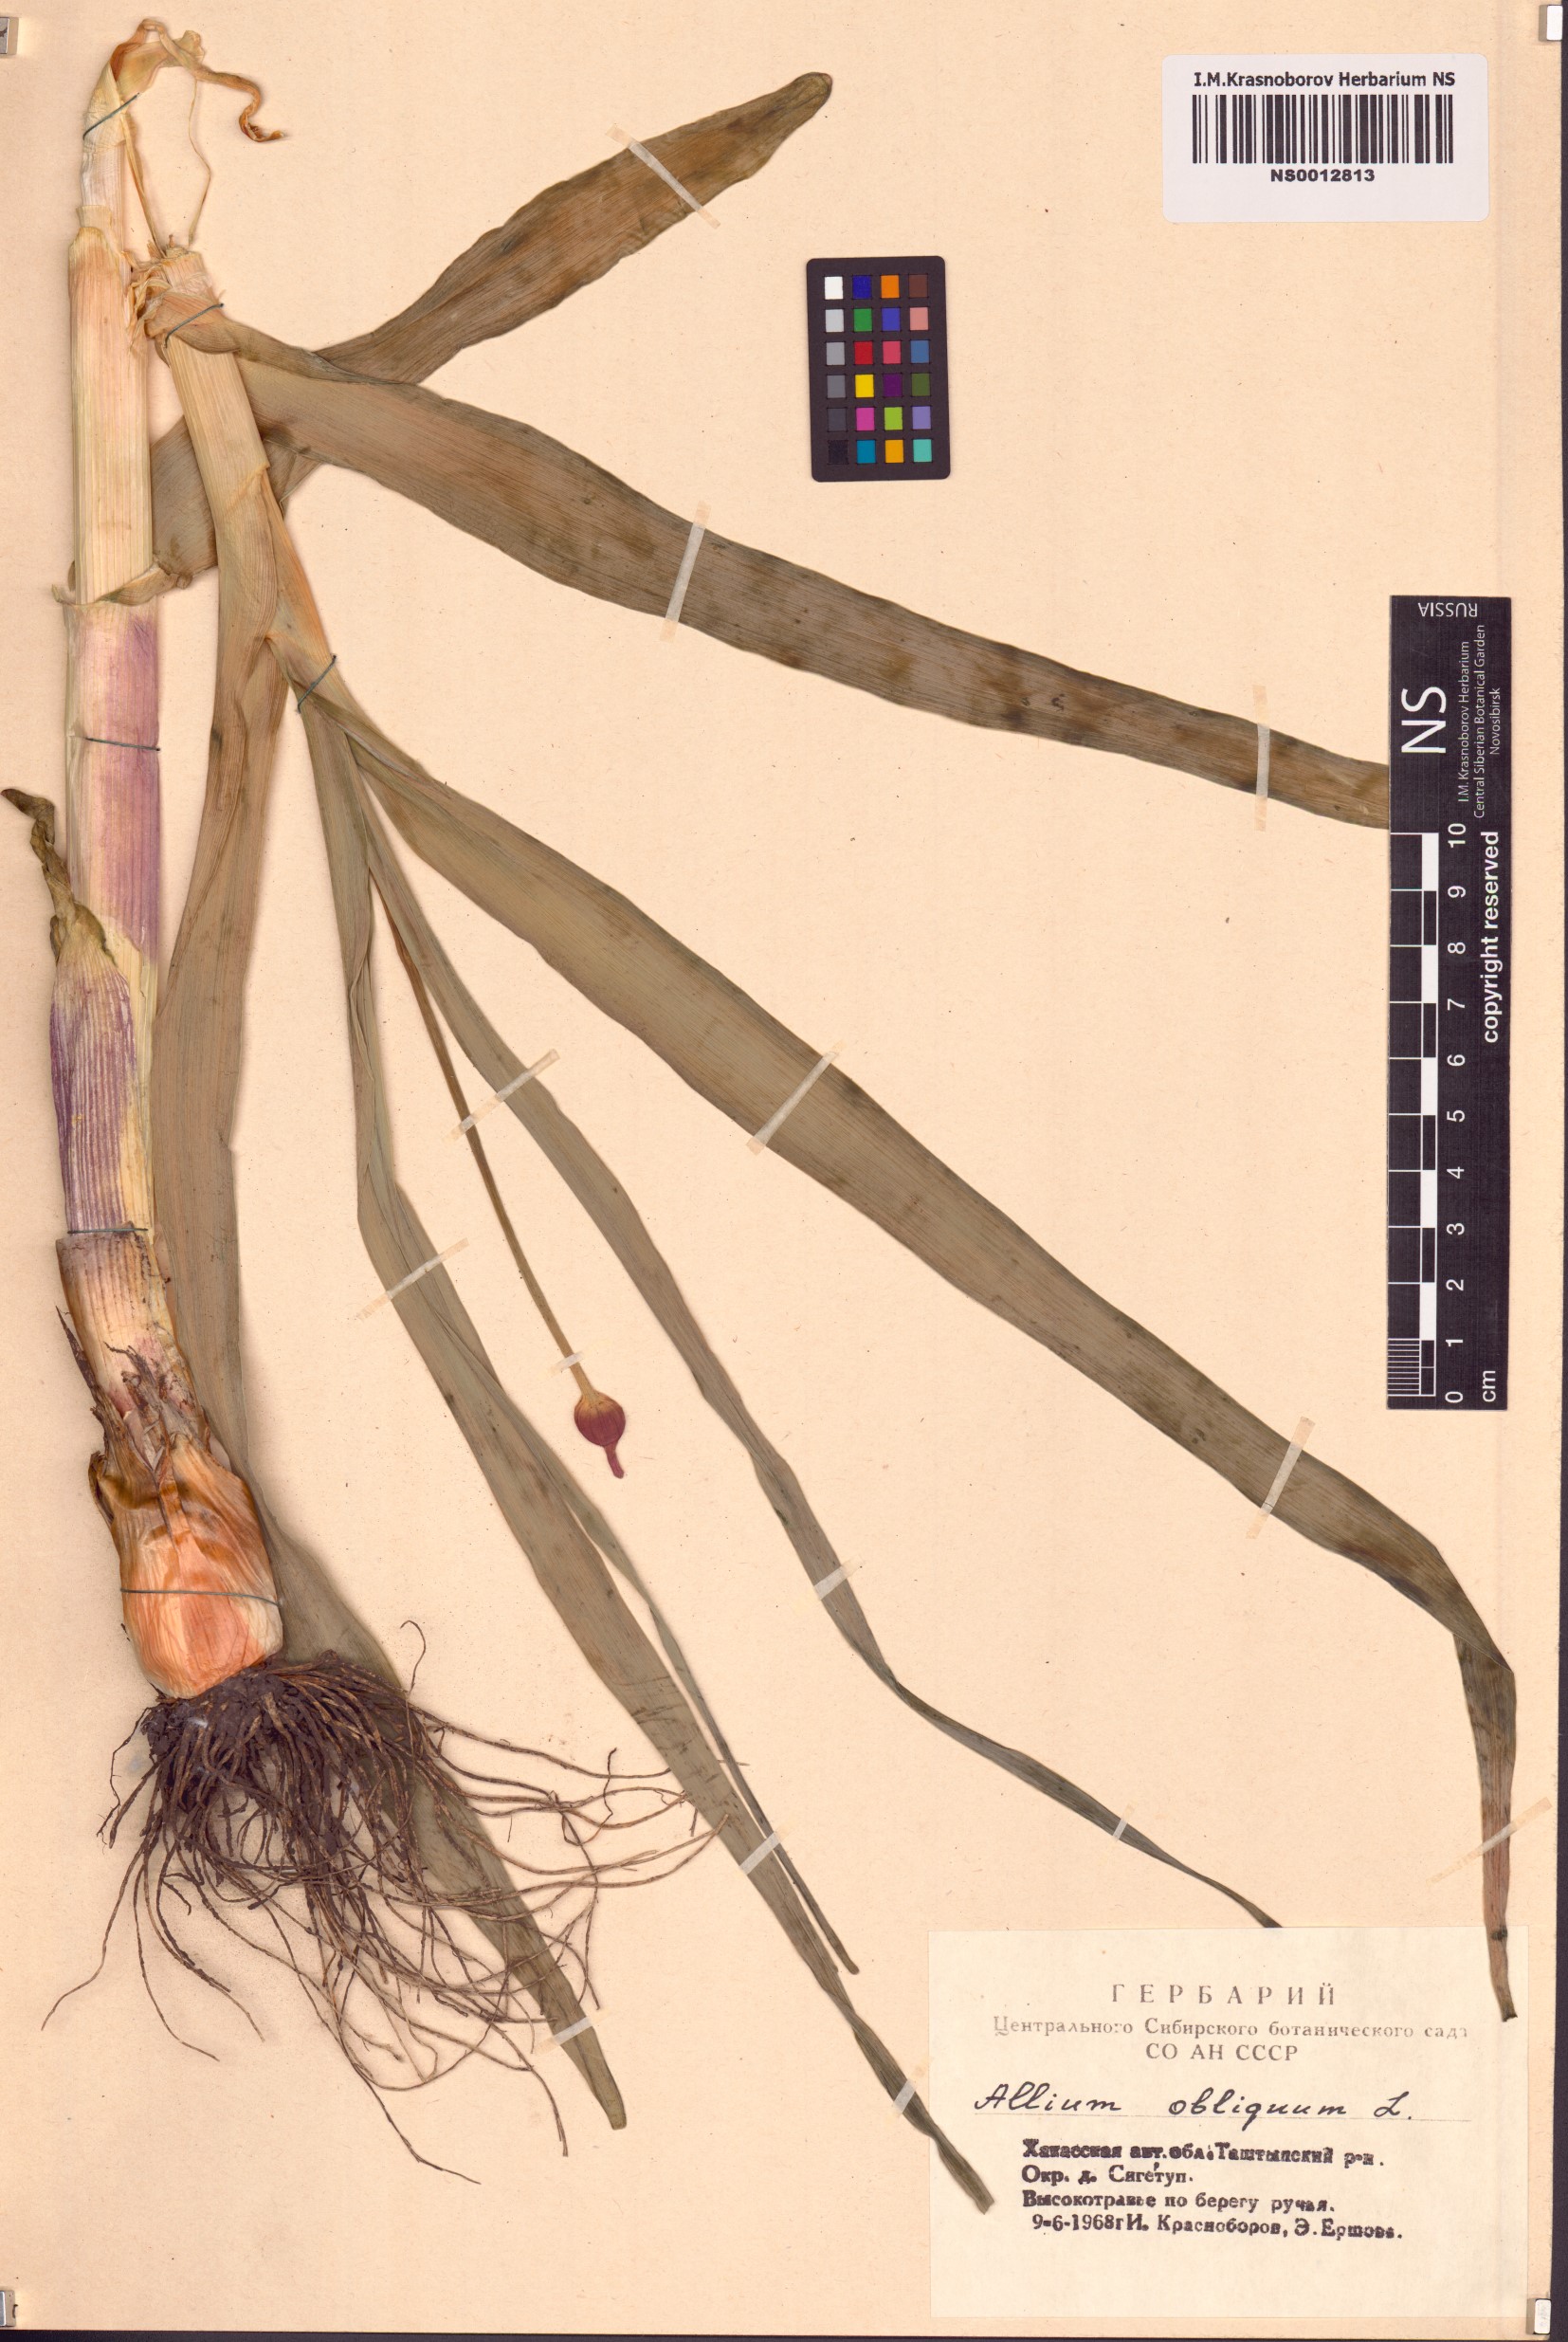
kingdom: Plantae
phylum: Tracheophyta
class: Liliopsida
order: Asparagales
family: Amaryllidaceae
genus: Allium
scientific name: Allium obliquum
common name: Oblique onion
